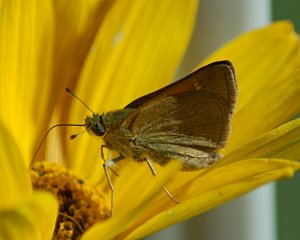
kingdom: Animalia
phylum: Arthropoda
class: Insecta
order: Lepidoptera
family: Hesperiidae
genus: Polites
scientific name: Polites themistocles
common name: Tawny-edged Skipper
